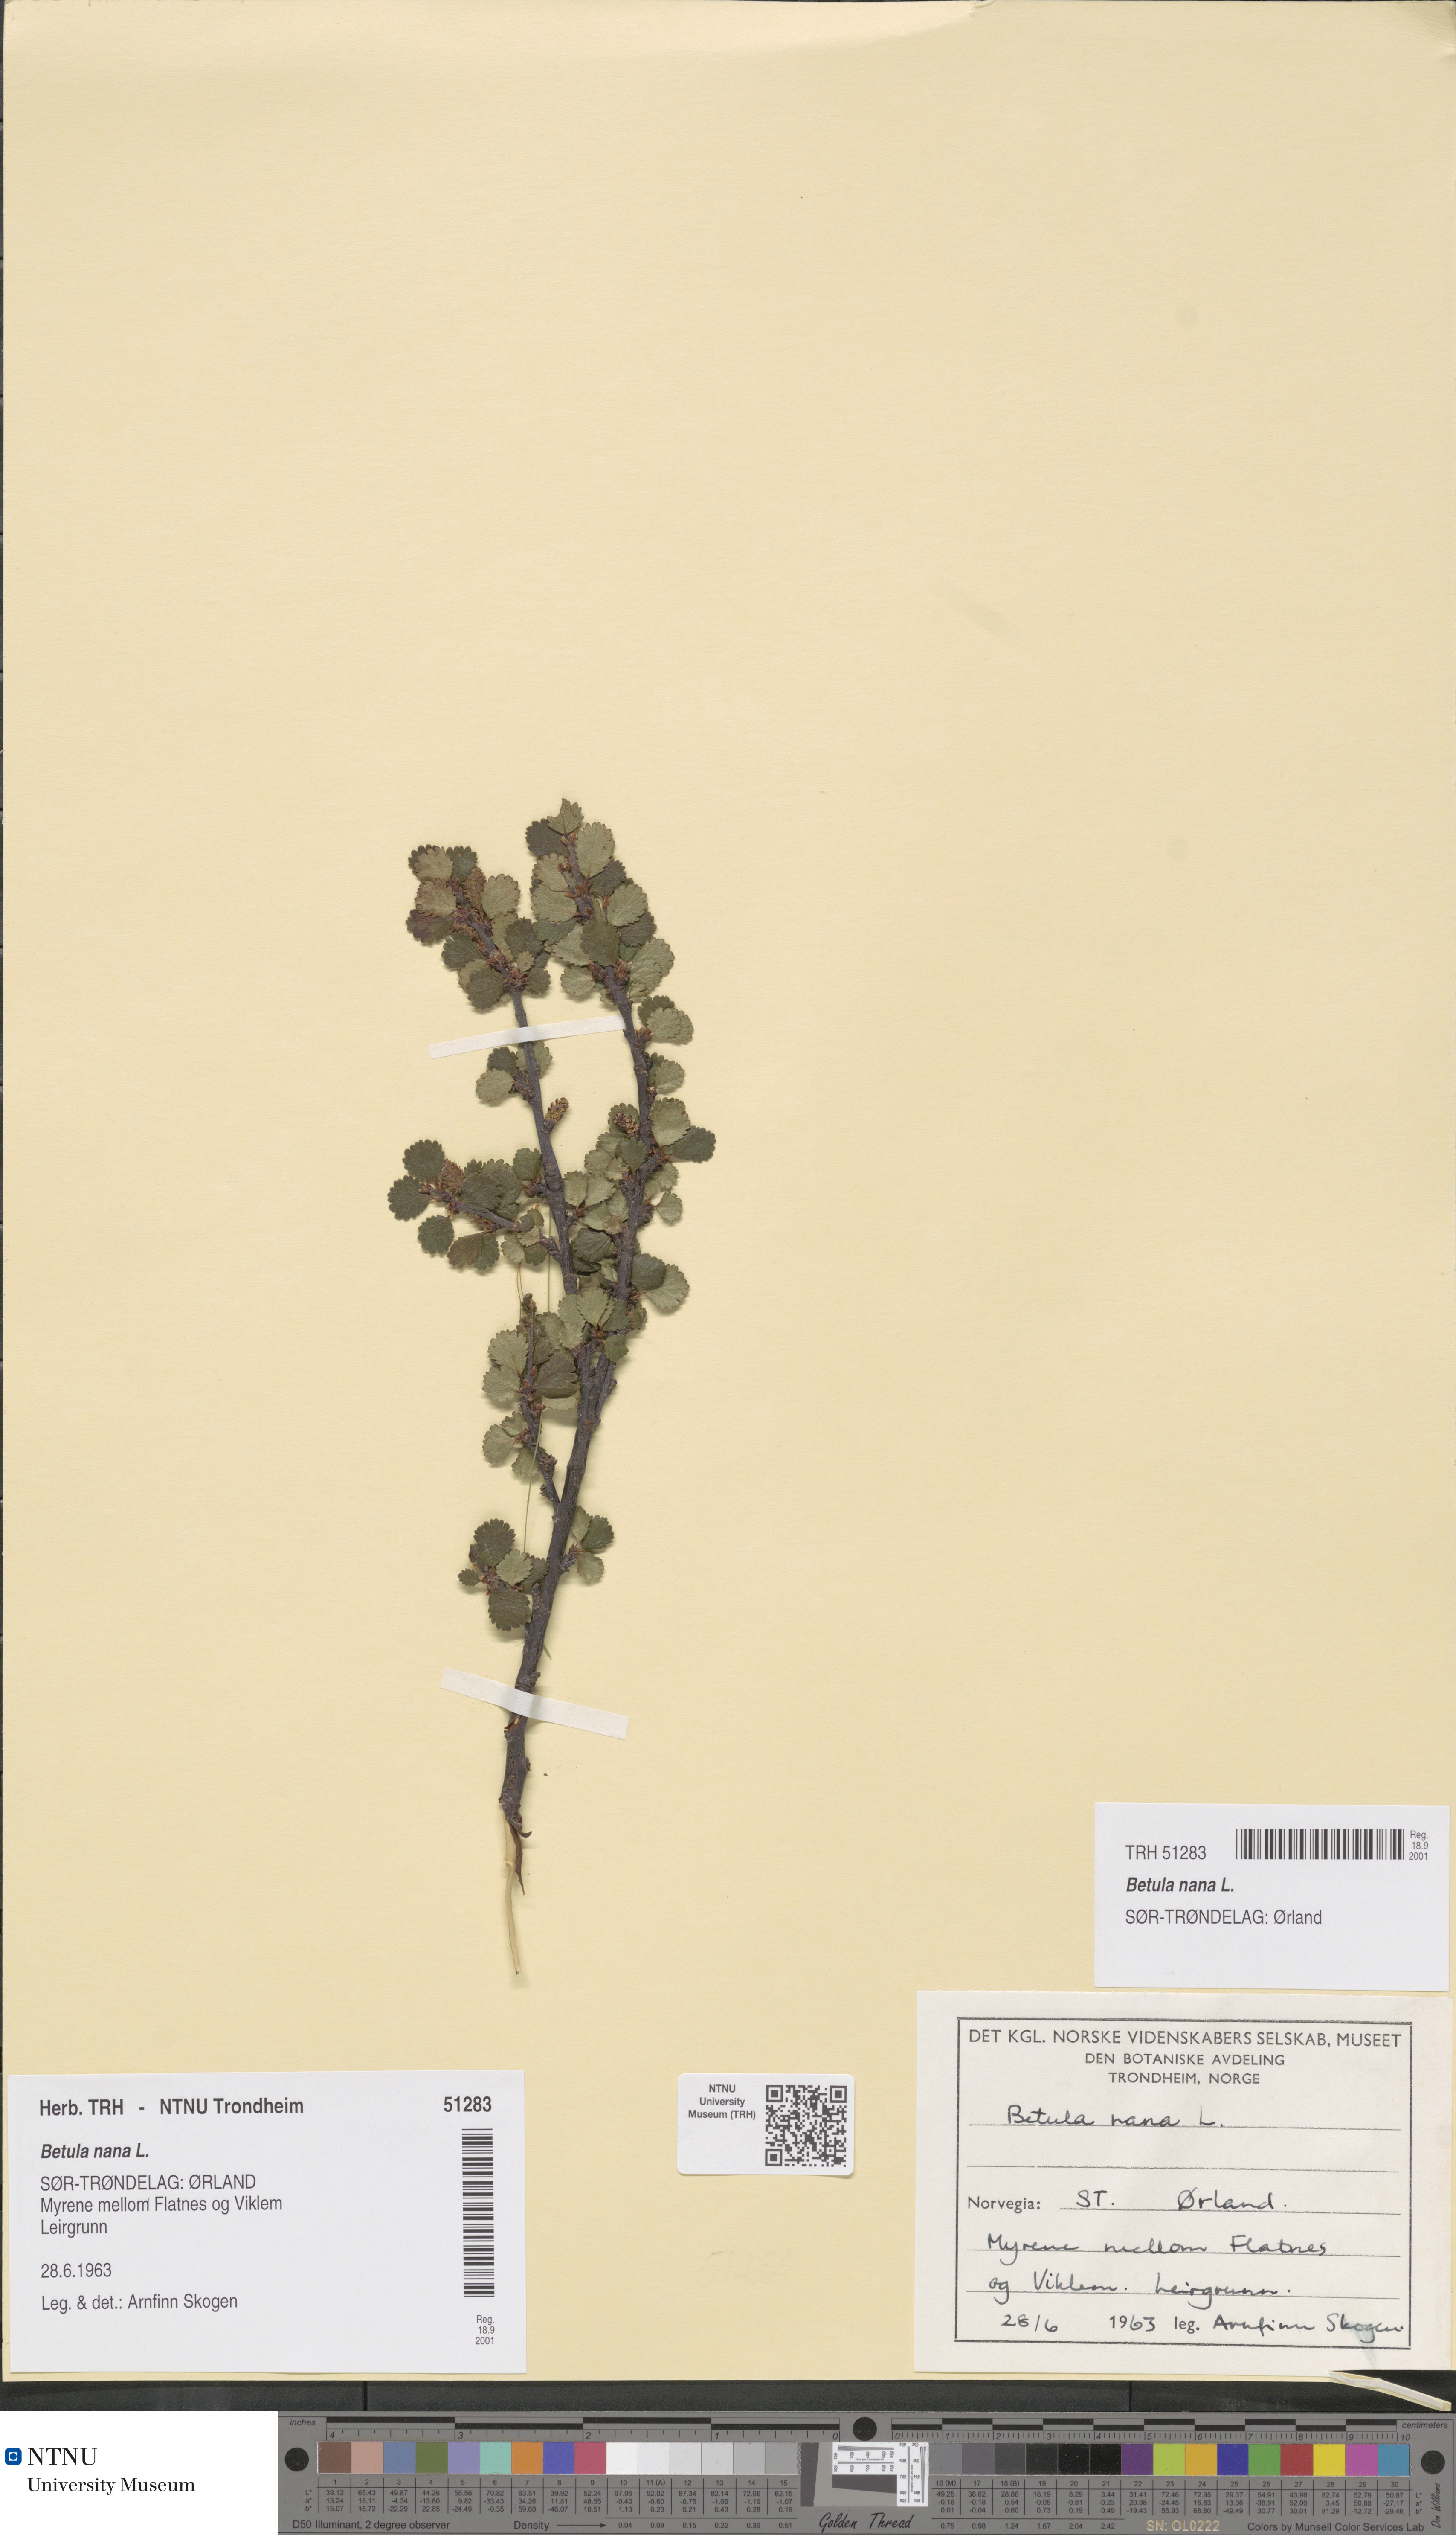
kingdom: Plantae
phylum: Tracheophyta
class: Magnoliopsida
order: Fagales
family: Betulaceae
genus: Betula
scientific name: Betula nana
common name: Arctic dwarf birch
